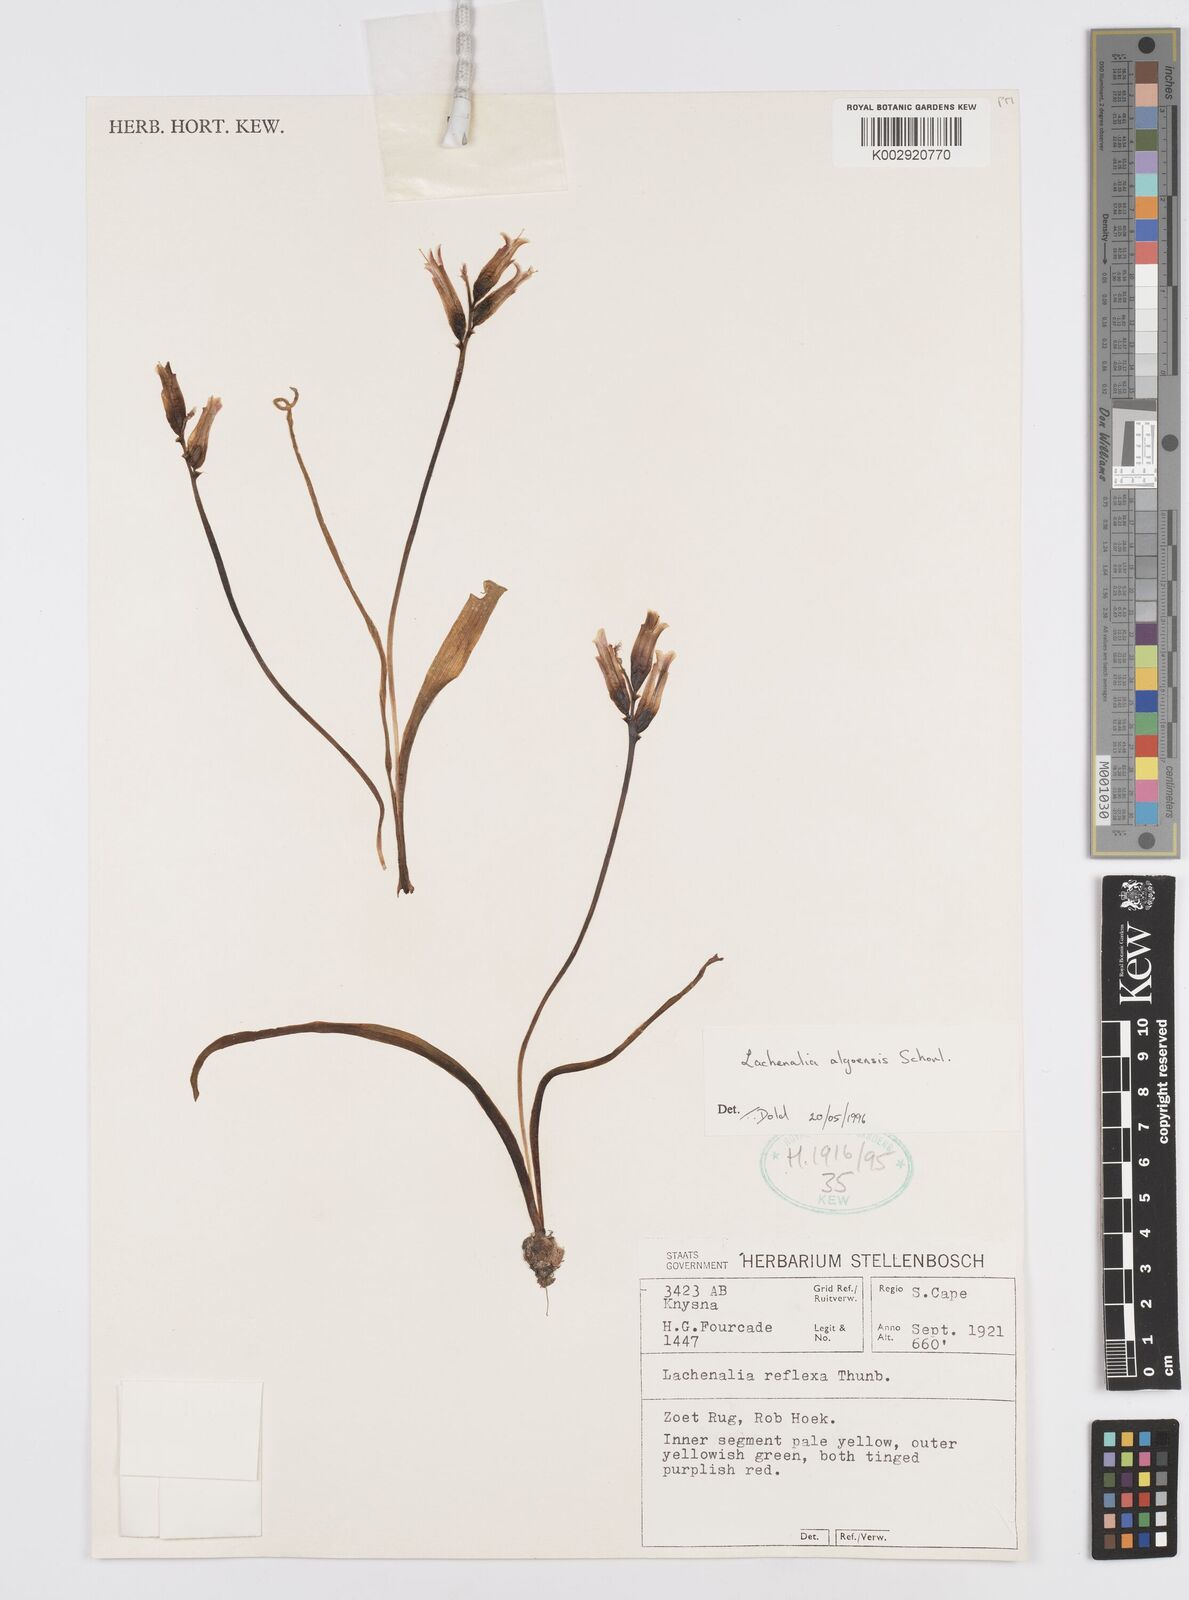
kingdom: Plantae
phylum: Tracheophyta
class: Liliopsida
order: Asparagales
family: Asparagaceae
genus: Lachenalia
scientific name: Lachenalia algoensis
